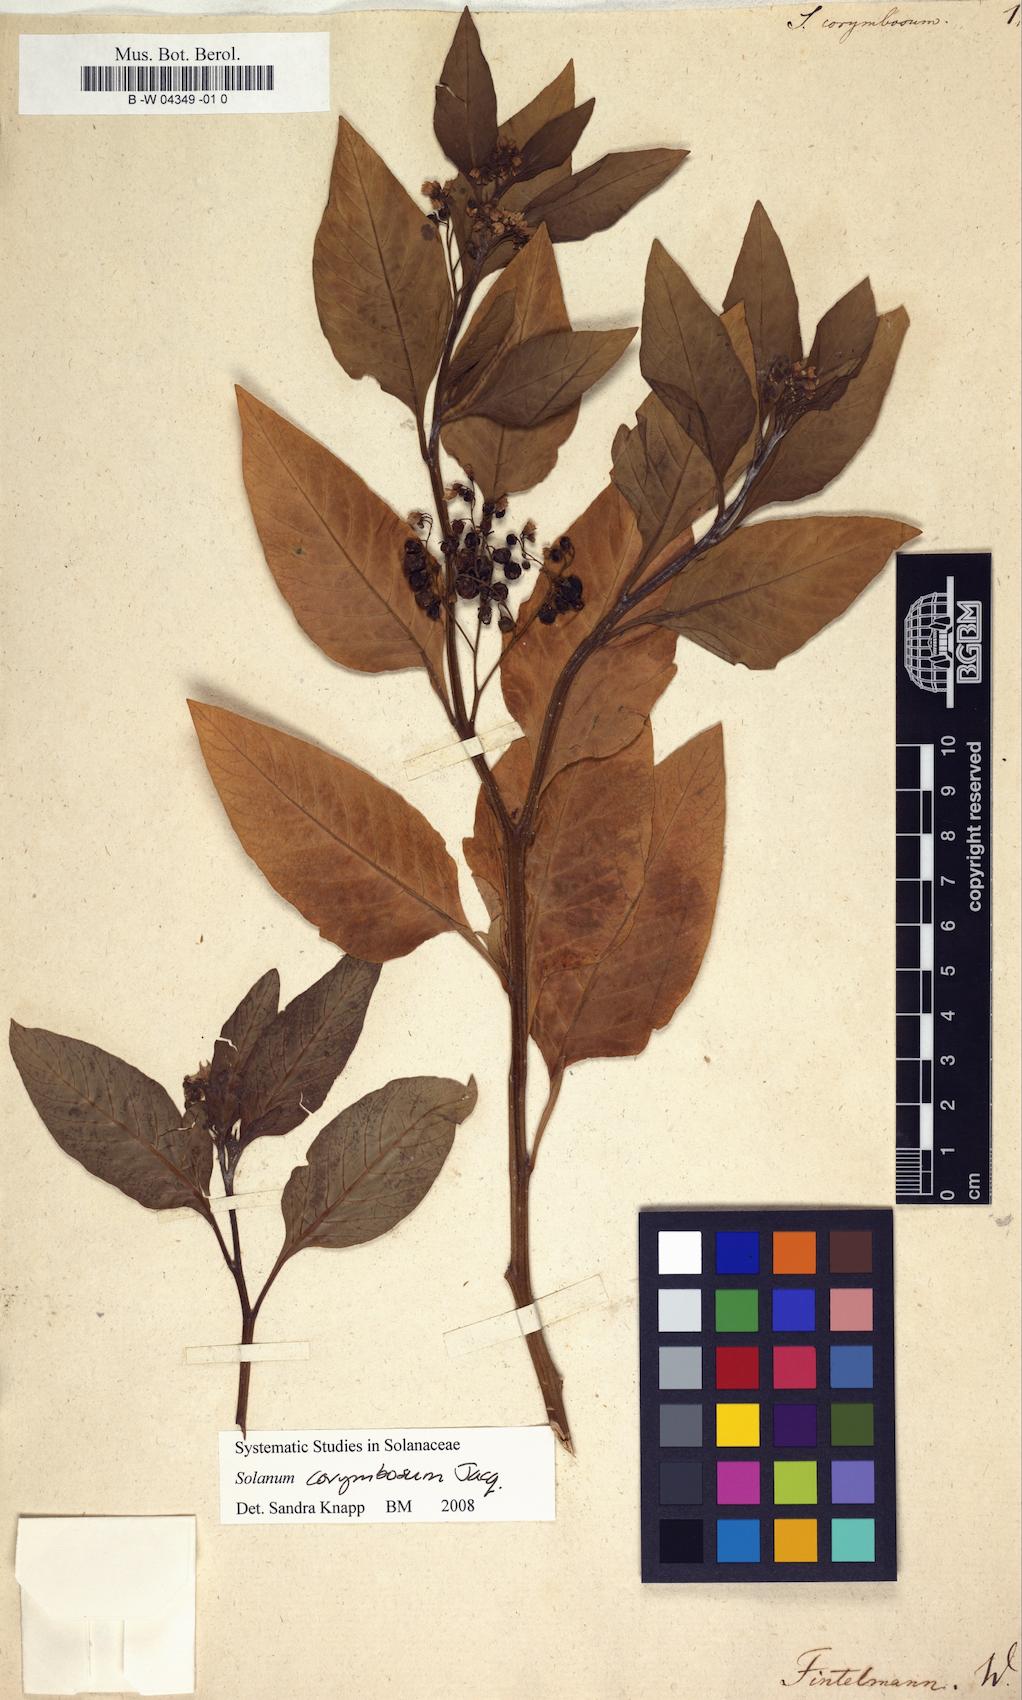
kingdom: Plantae
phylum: Tracheophyta
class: Magnoliopsida
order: Solanales
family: Solanaceae
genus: Solanum
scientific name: Solanum corymbosum
